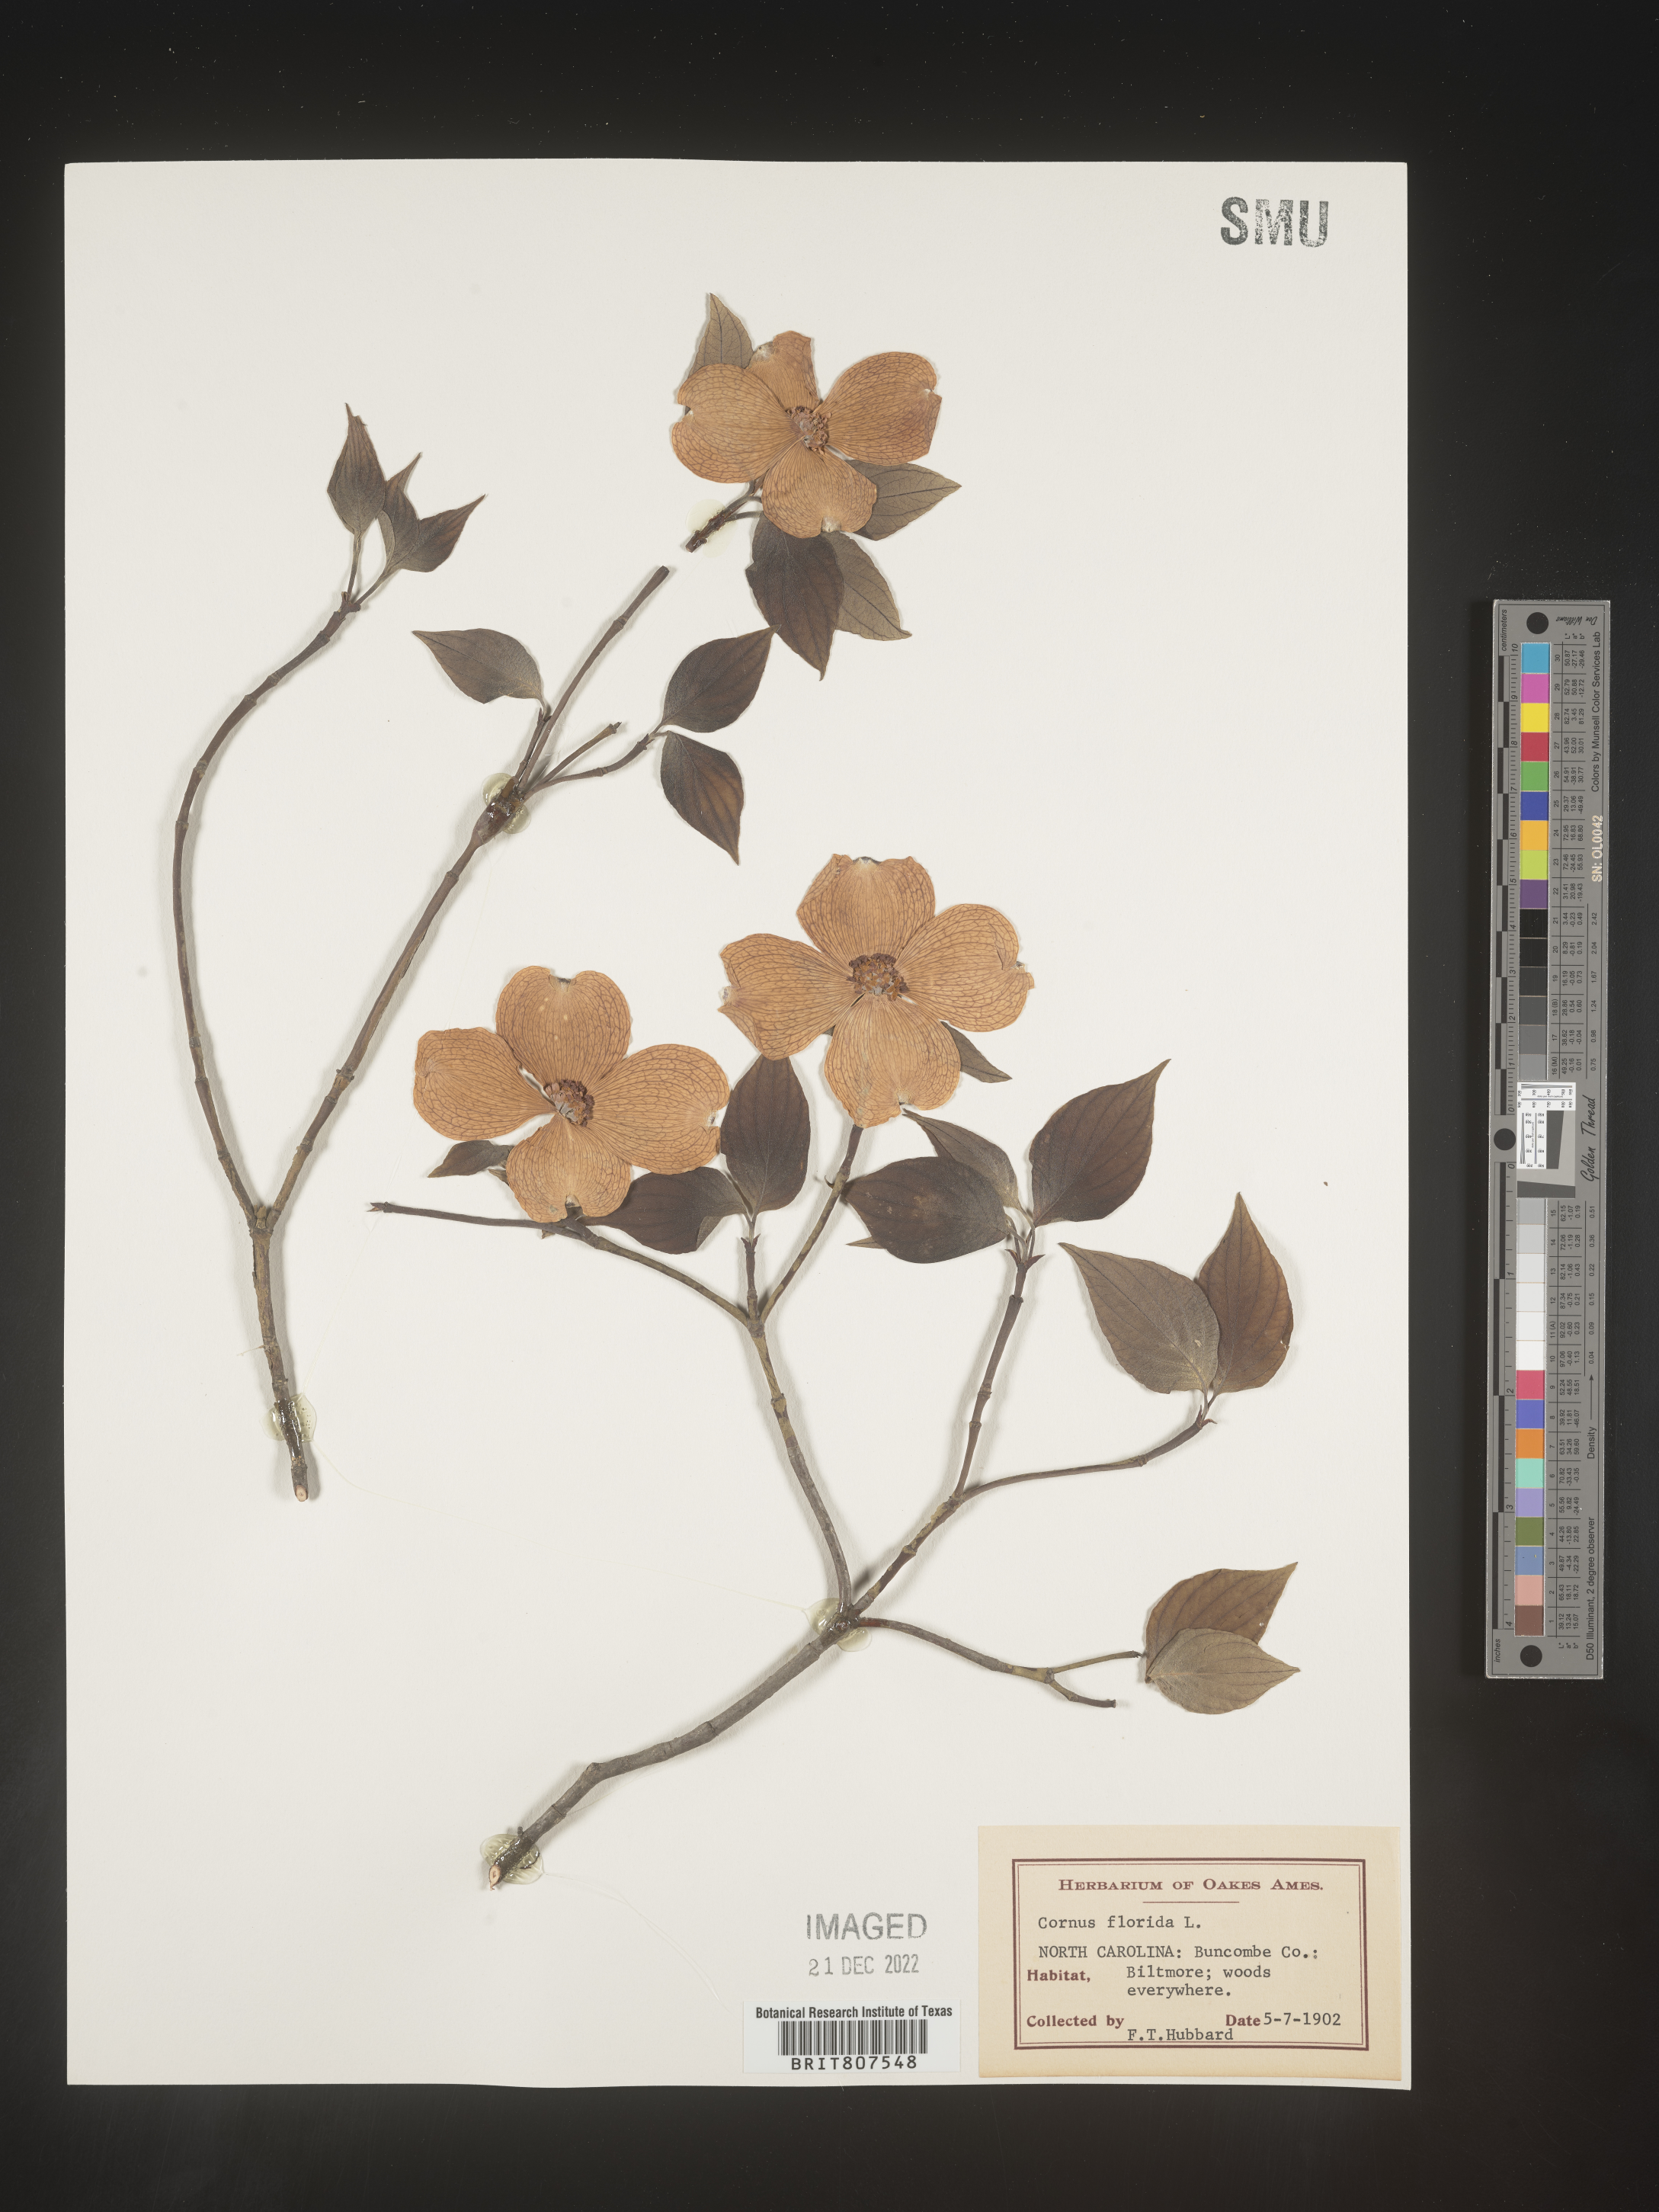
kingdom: Plantae
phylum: Tracheophyta
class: Magnoliopsida
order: Cornales
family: Cornaceae
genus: Cornus
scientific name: Cornus florida
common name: Flowering dogwood
